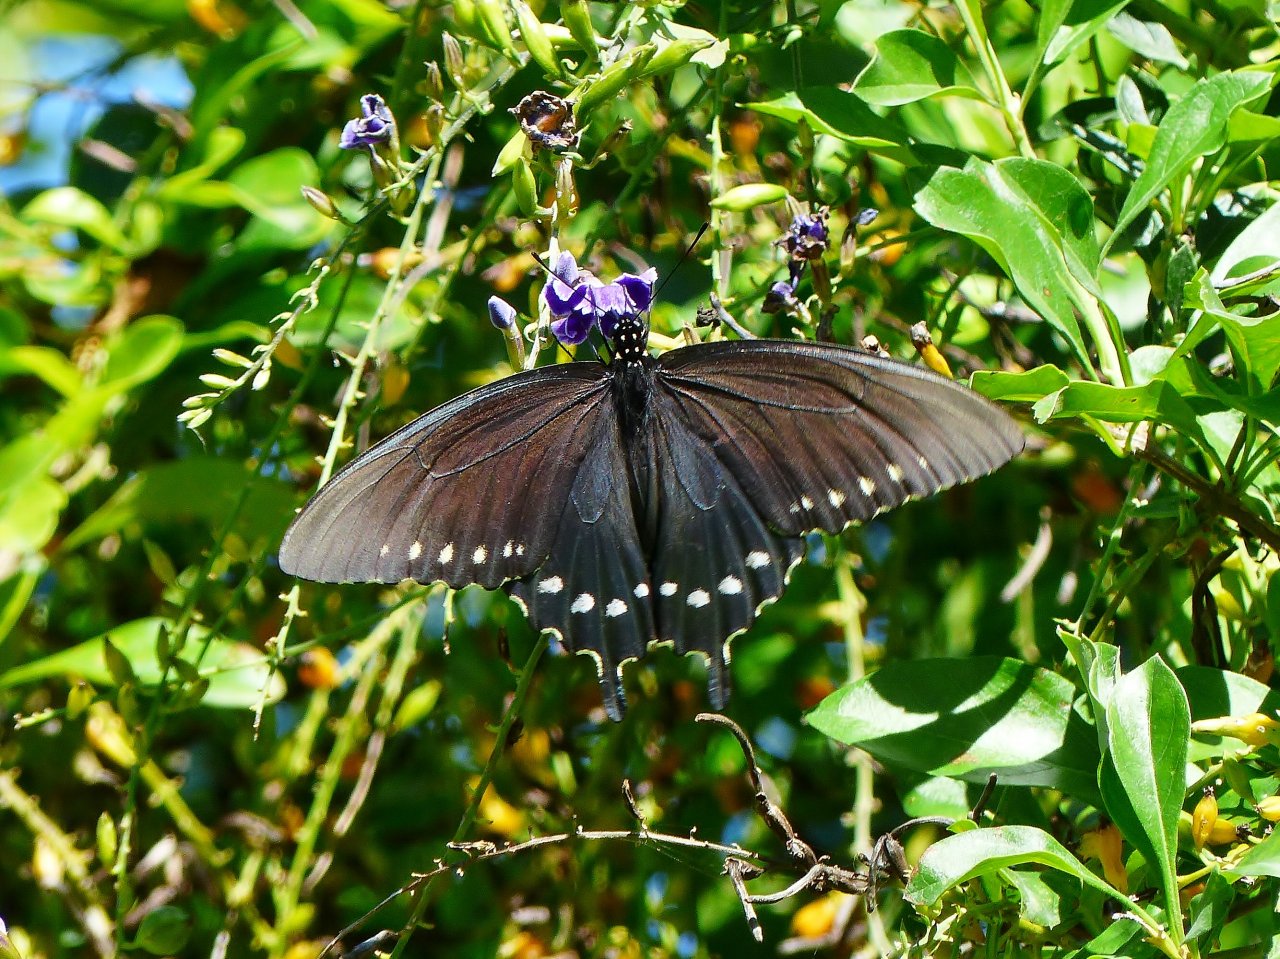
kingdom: Animalia
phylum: Arthropoda
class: Insecta
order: Lepidoptera
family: Papilionidae
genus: Battus
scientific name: Battus philenor
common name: Pipevine Swallowtail
